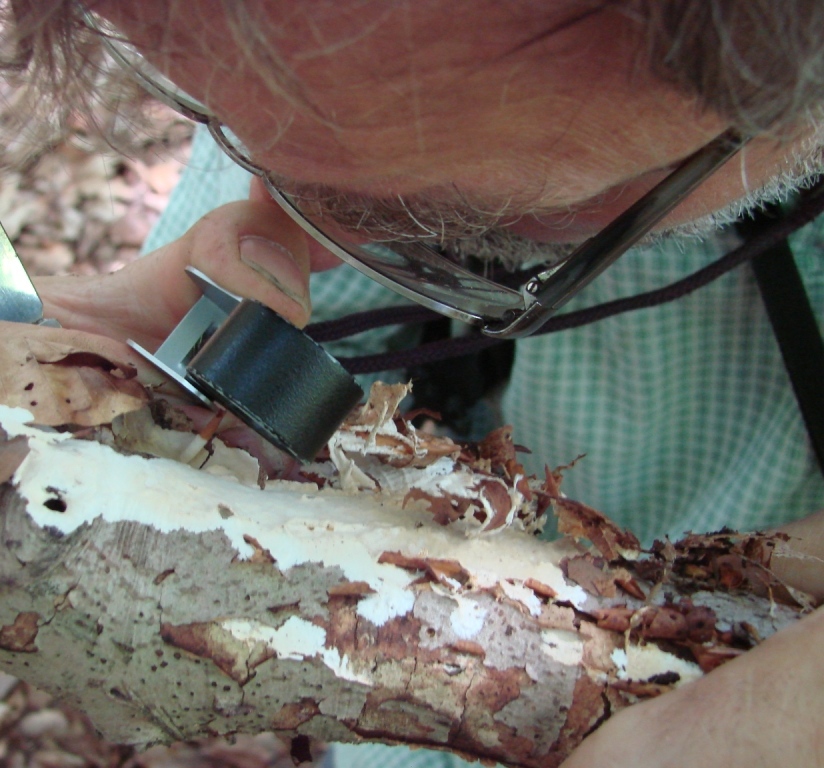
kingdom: Fungi
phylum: Basidiomycota
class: Agaricomycetes
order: Polyporales
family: Phanerochaetaceae
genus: Phanerochaete
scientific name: Phanerochaete velutina
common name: dunet randtråd
